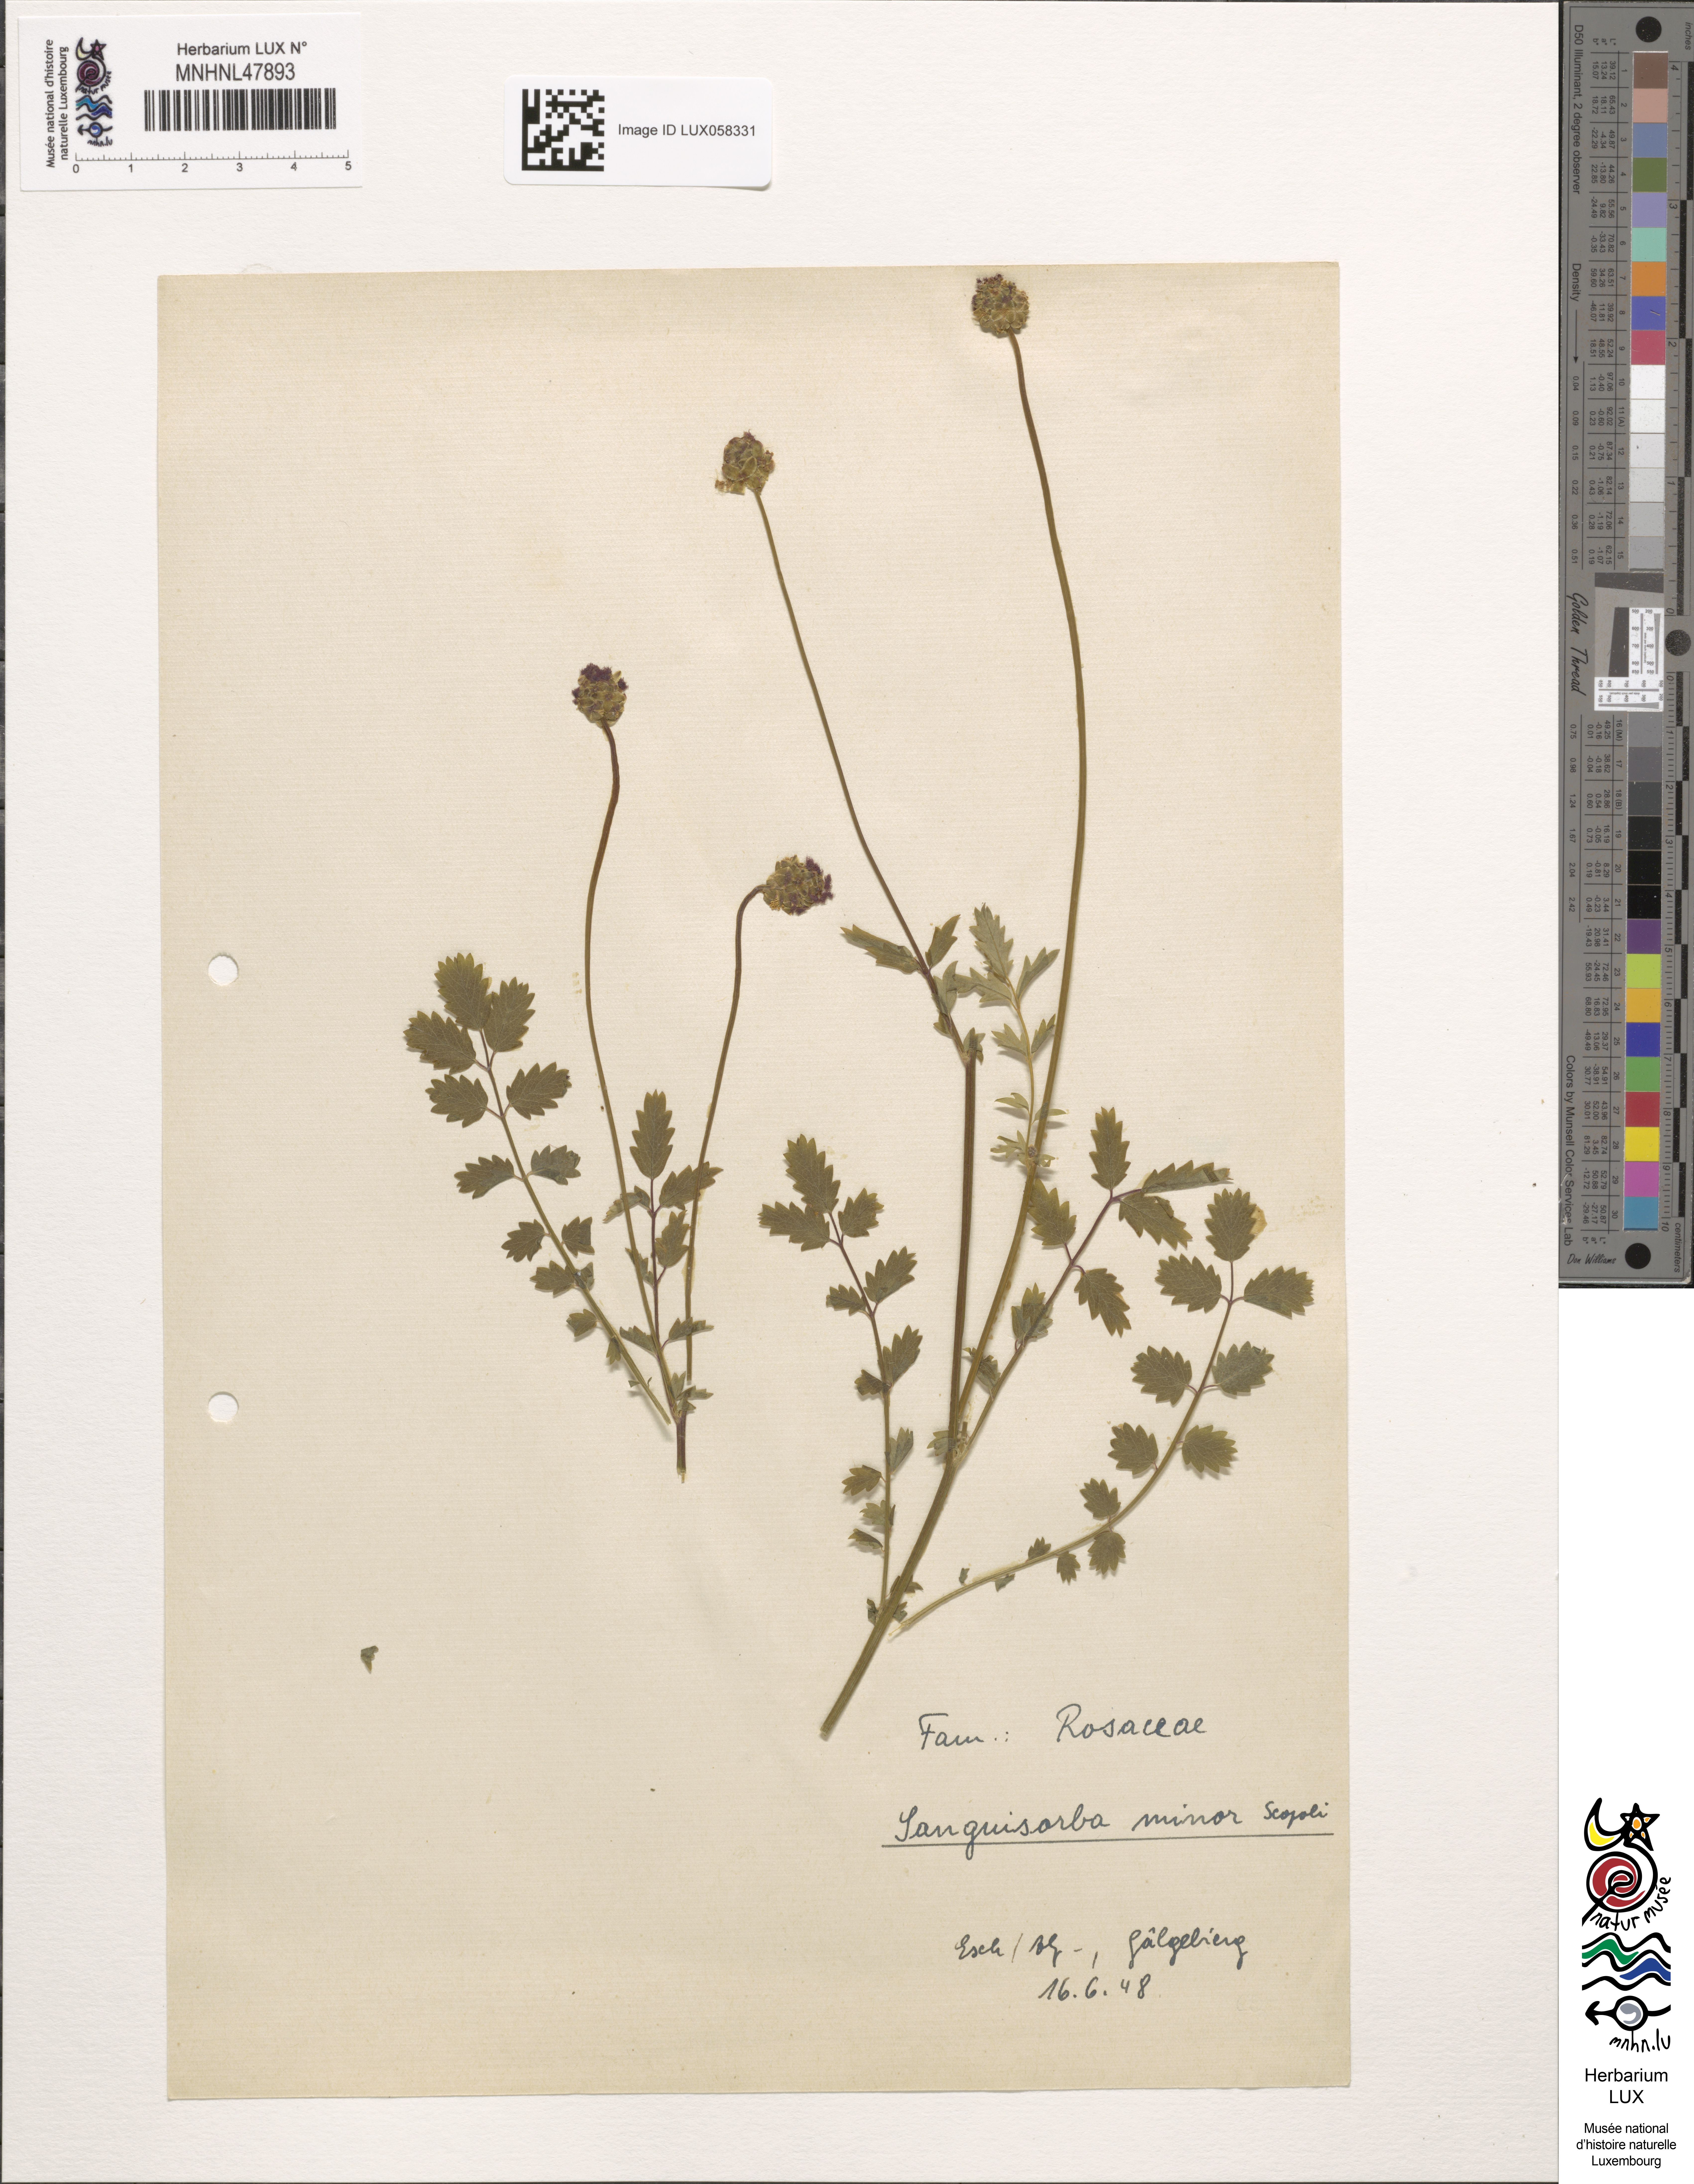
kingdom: Plantae
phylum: Tracheophyta
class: Magnoliopsida
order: Rosales
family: Rosaceae
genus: Poterium
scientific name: Poterium sanguisorba
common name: Salad burnet
